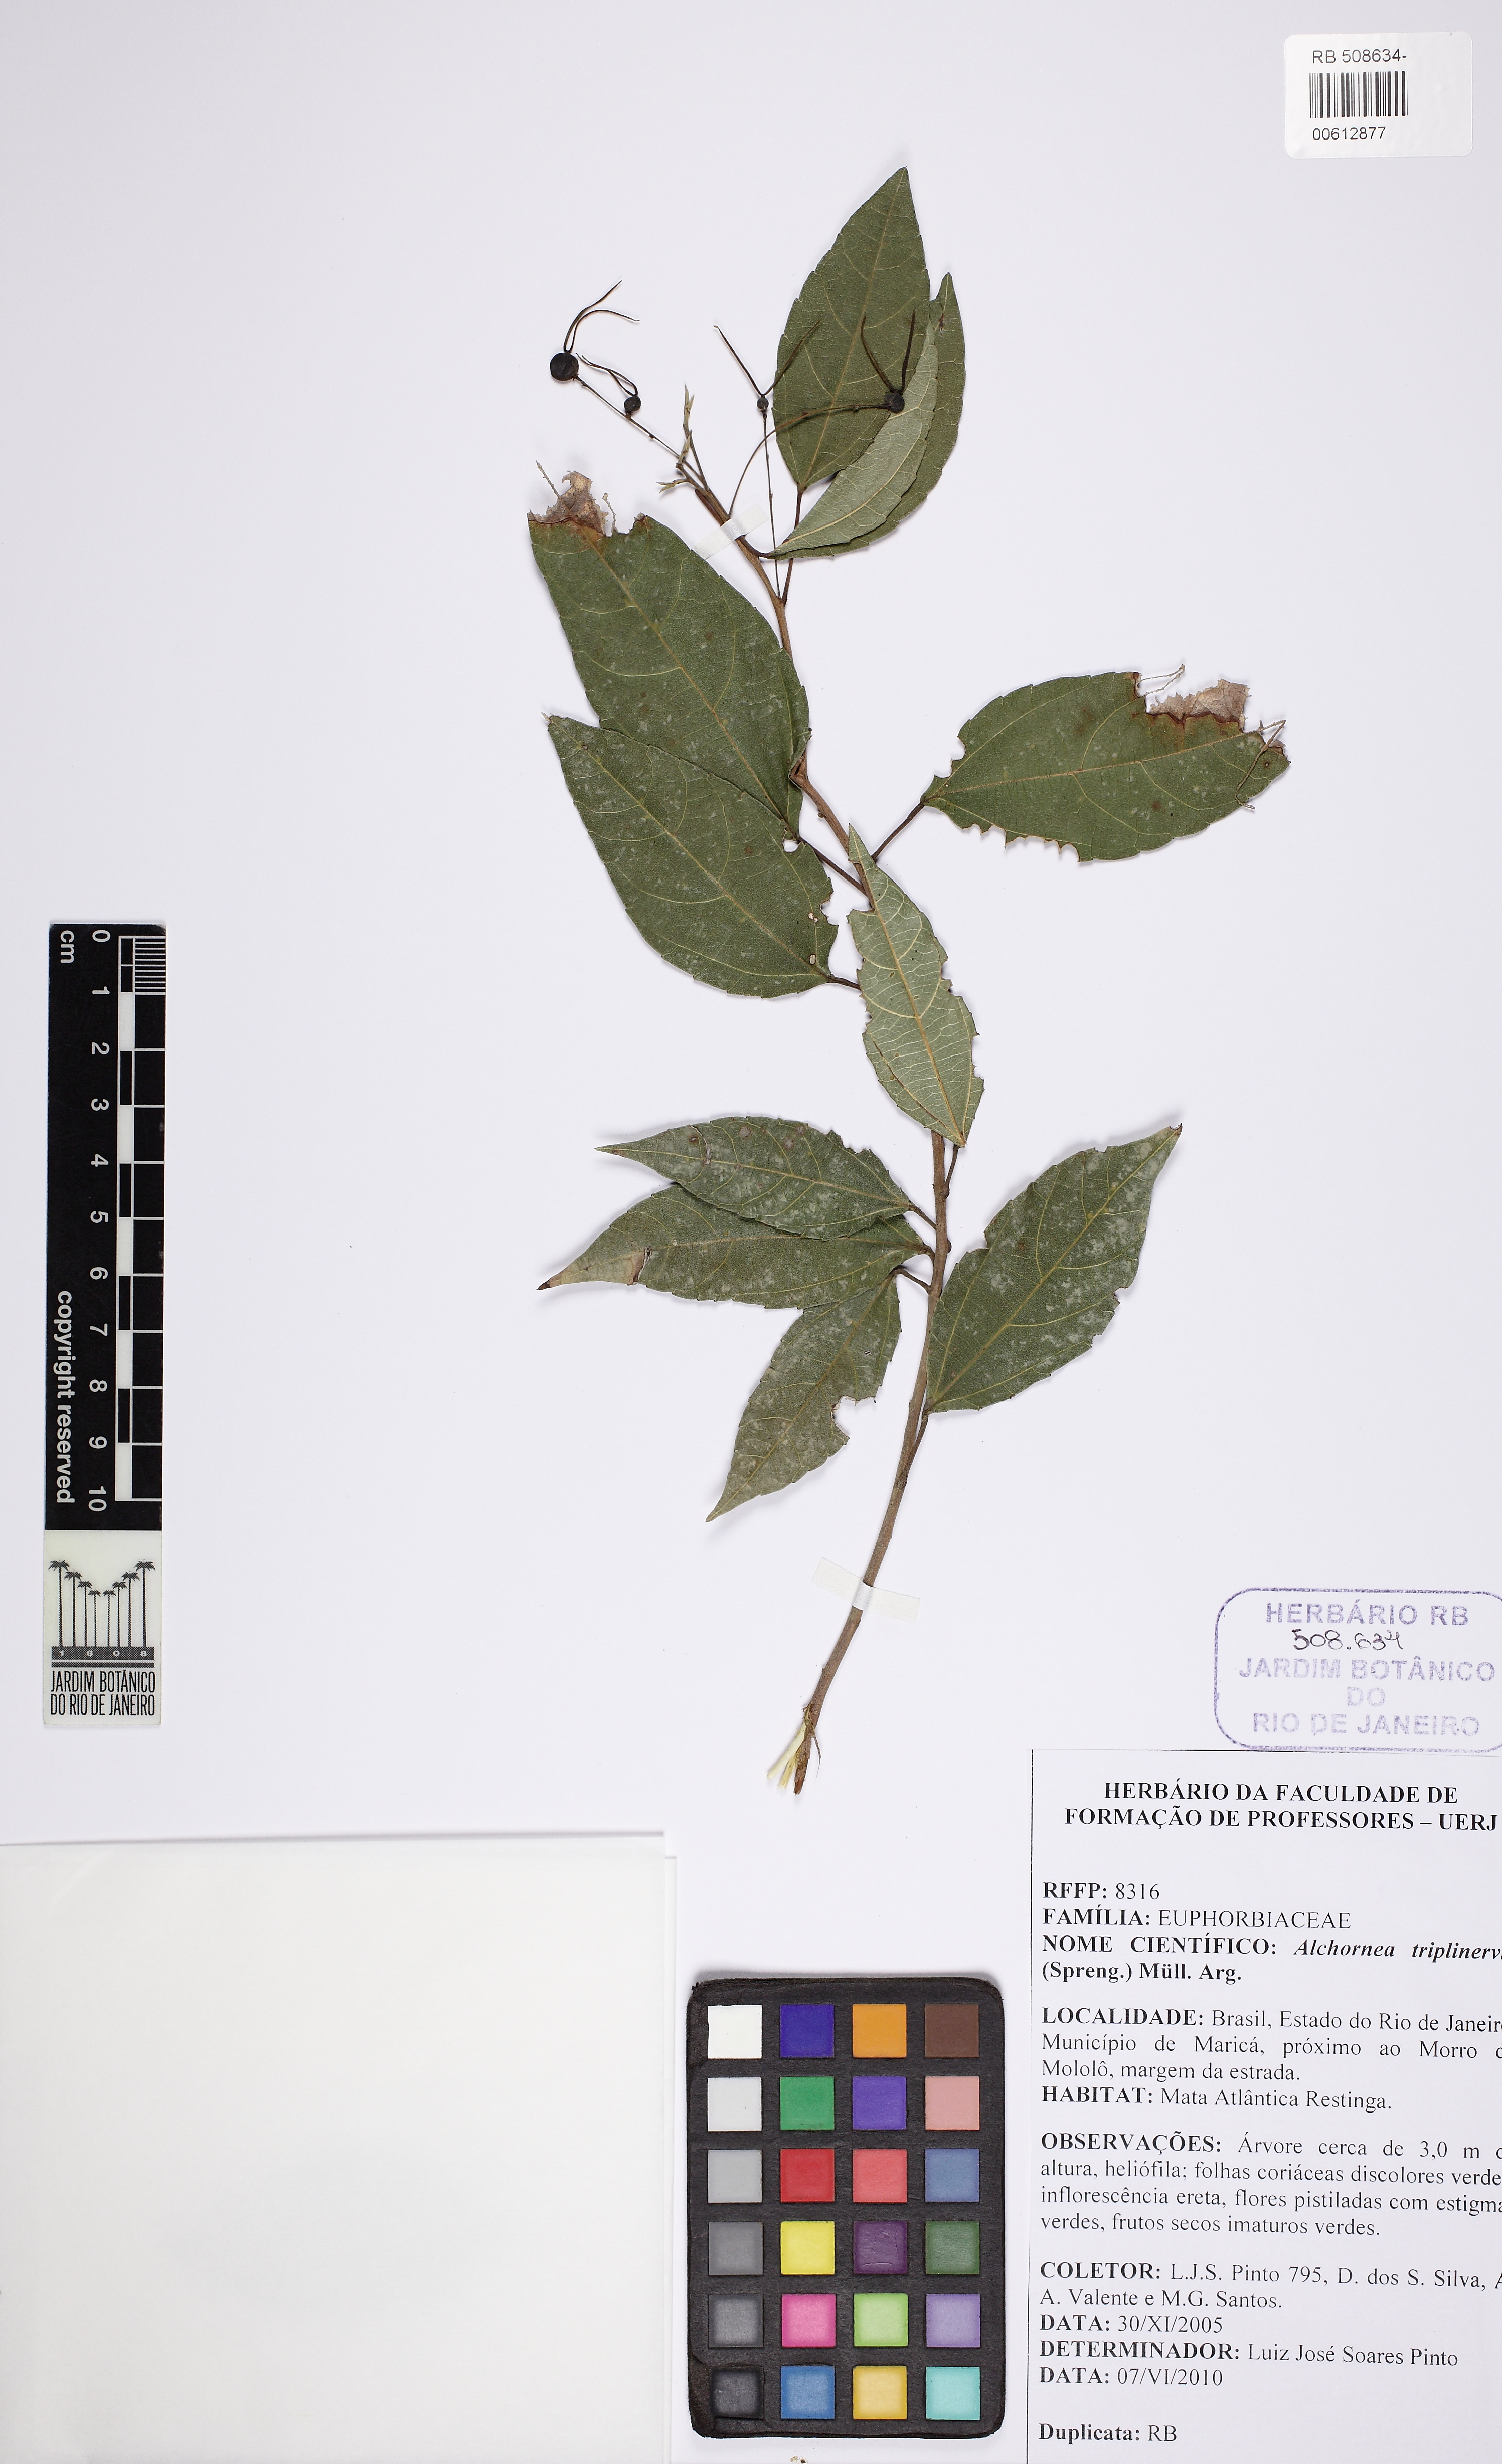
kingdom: Plantae
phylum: Tracheophyta
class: Magnoliopsida
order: Malpighiales
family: Euphorbiaceae
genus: Alchornea
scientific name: Alchornea triplinervia
